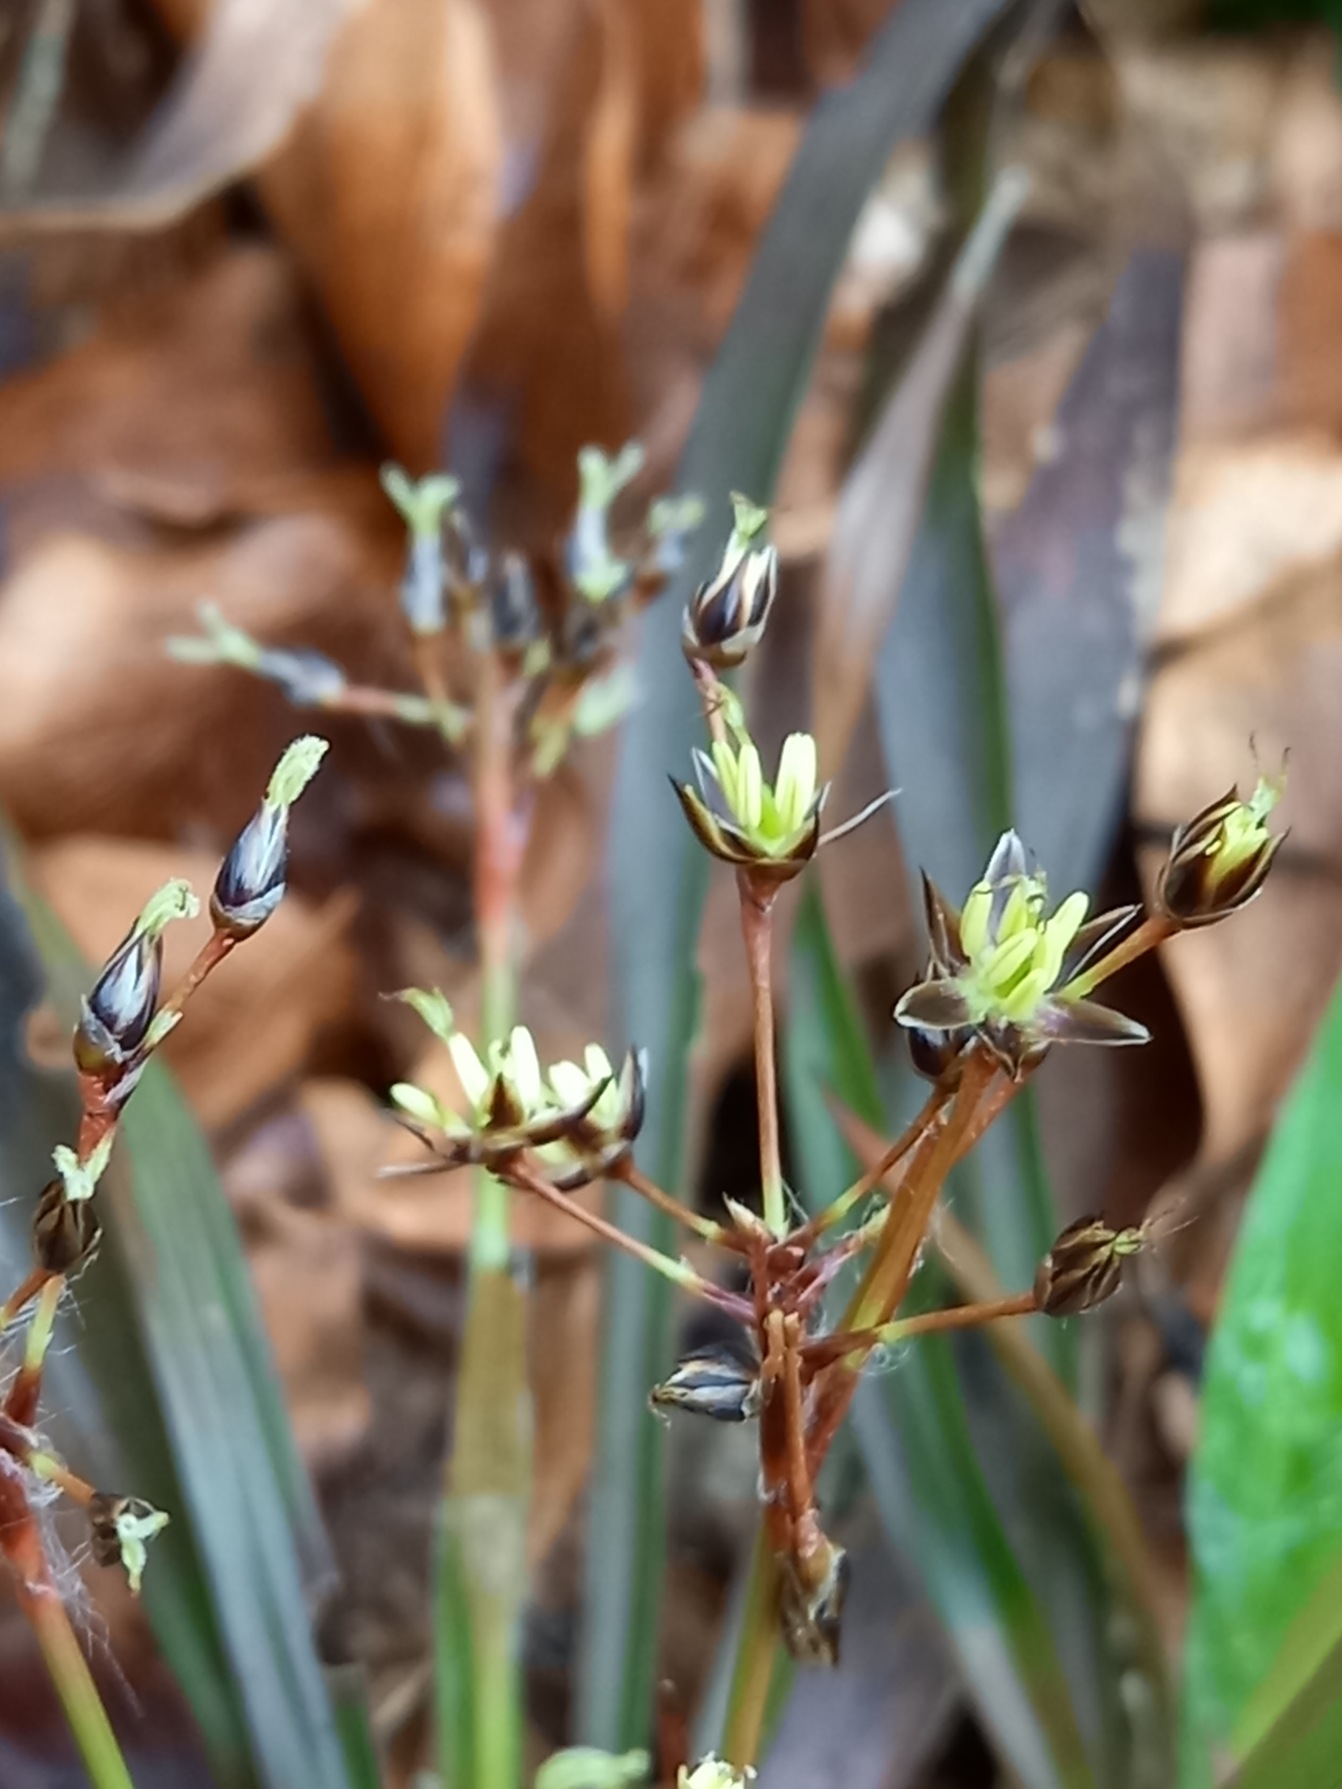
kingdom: Plantae
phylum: Tracheophyta
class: Liliopsida
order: Poales
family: Juncaceae
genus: Luzula
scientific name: Luzula pilosa
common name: Håret frytle
